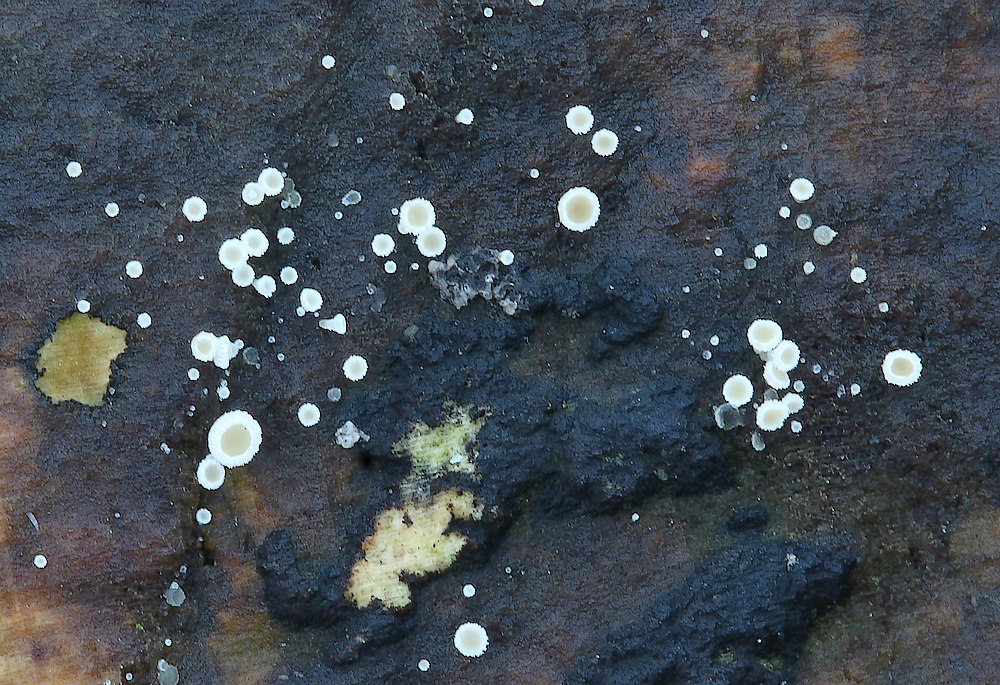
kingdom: Fungi
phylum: Ascomycota
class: Leotiomycetes
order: Helotiales
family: Lachnaceae
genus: Lachnum
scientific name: Lachnum impudicum
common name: vinter-frynseskive
